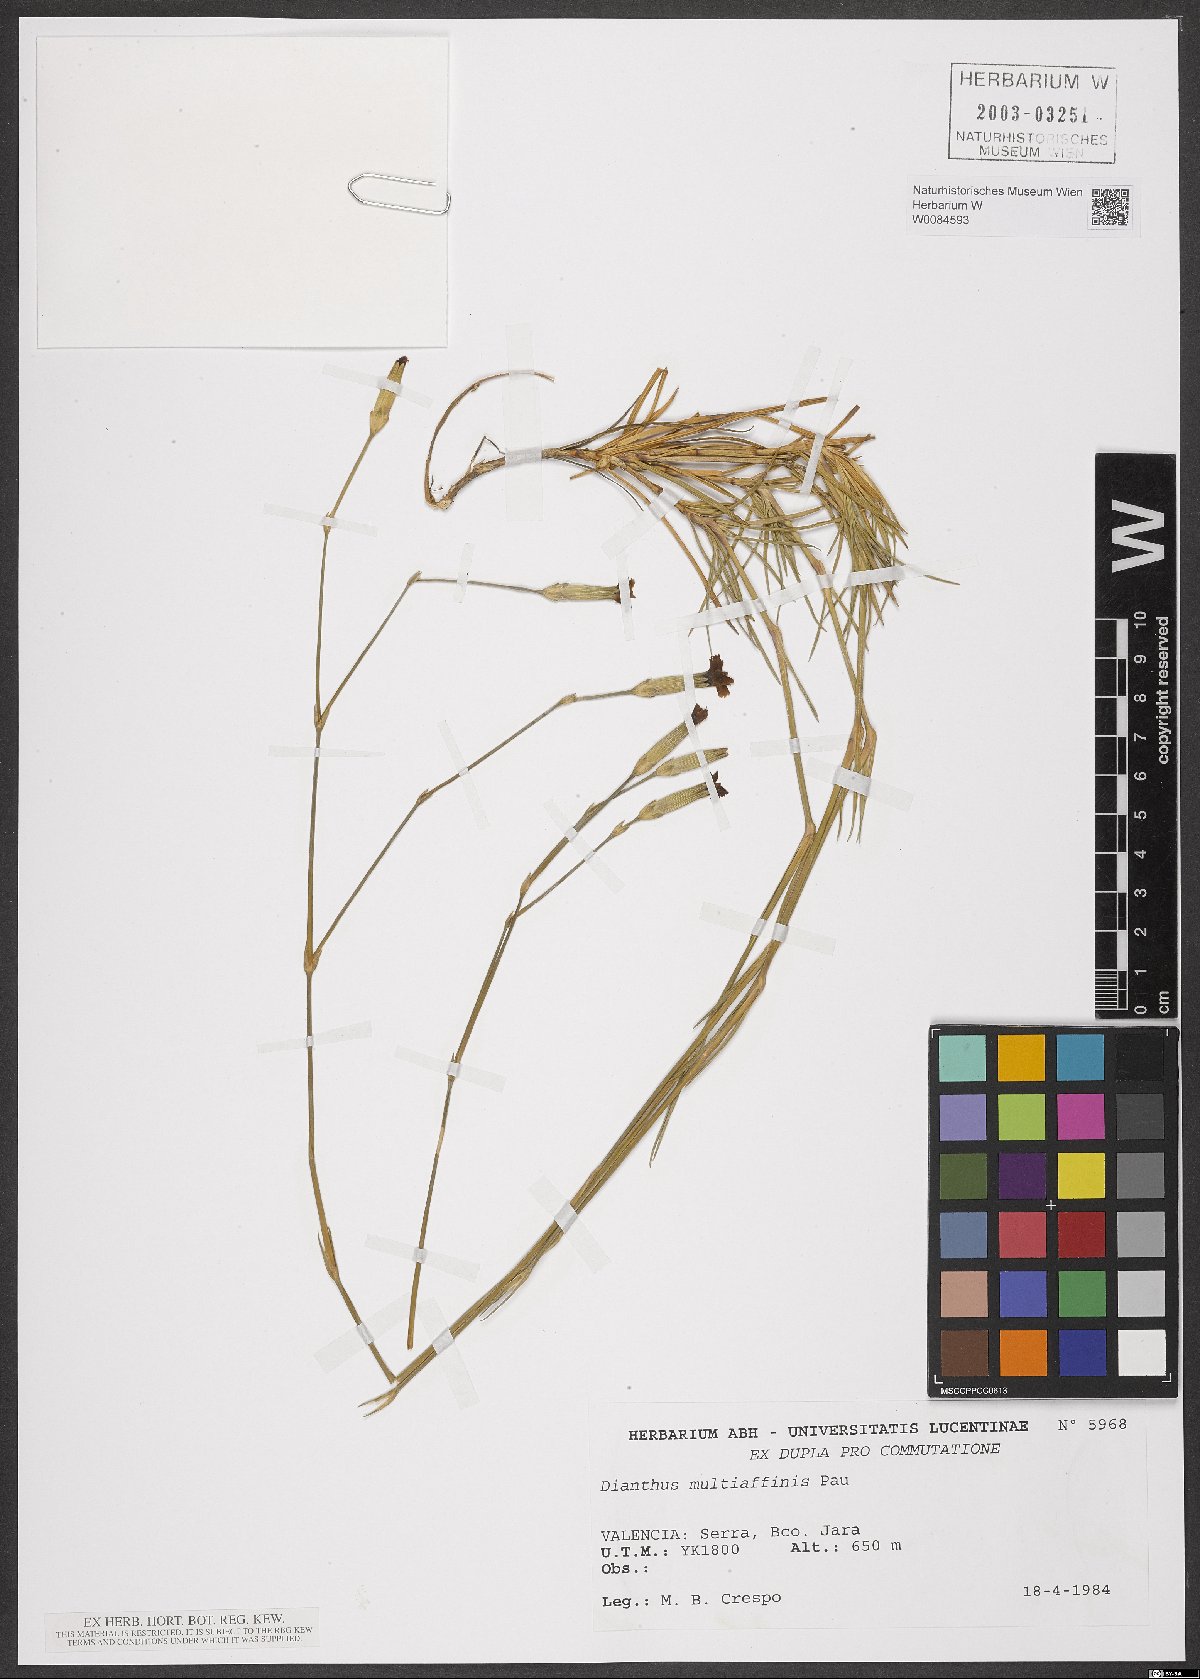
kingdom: Plantae
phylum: Tracheophyta
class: Magnoliopsida
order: Caryophyllales
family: Caryophyllaceae
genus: Dianthus
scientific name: Dianthus multiceps
